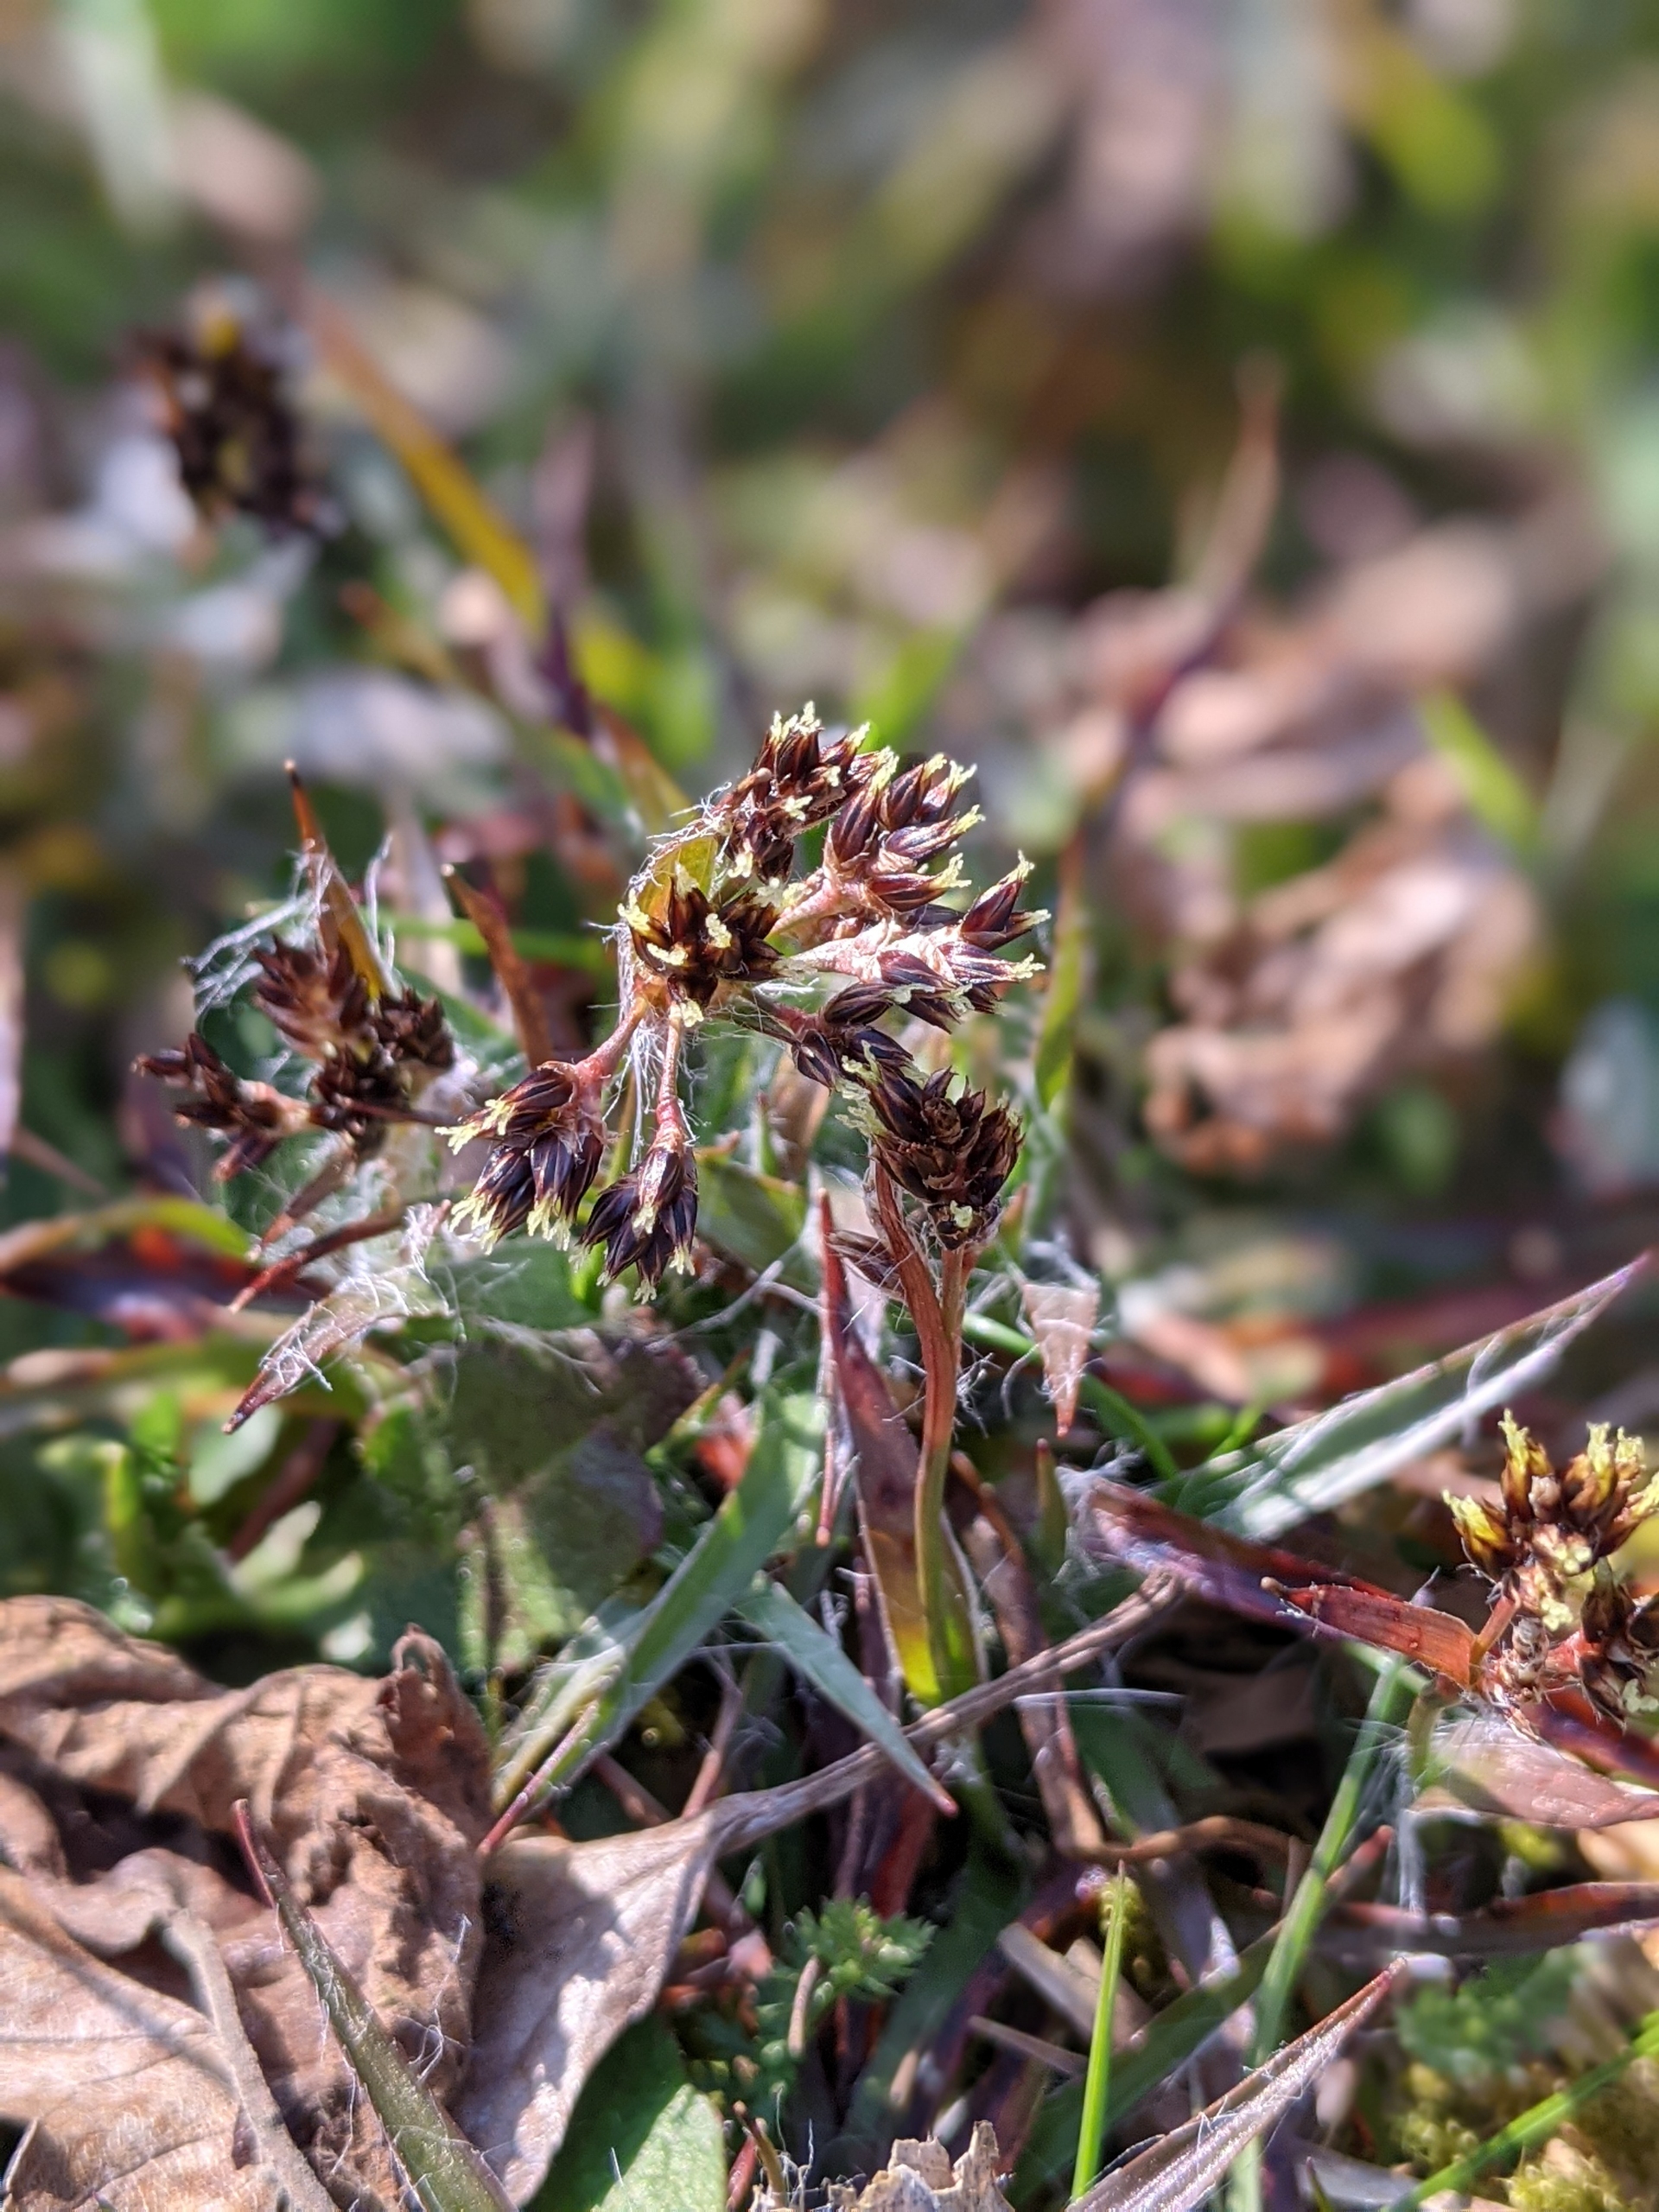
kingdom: Plantae
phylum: Tracheophyta
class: Liliopsida
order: Poales
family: Juncaceae
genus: Luzula
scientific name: Luzula campestris
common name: Mark-frytle
